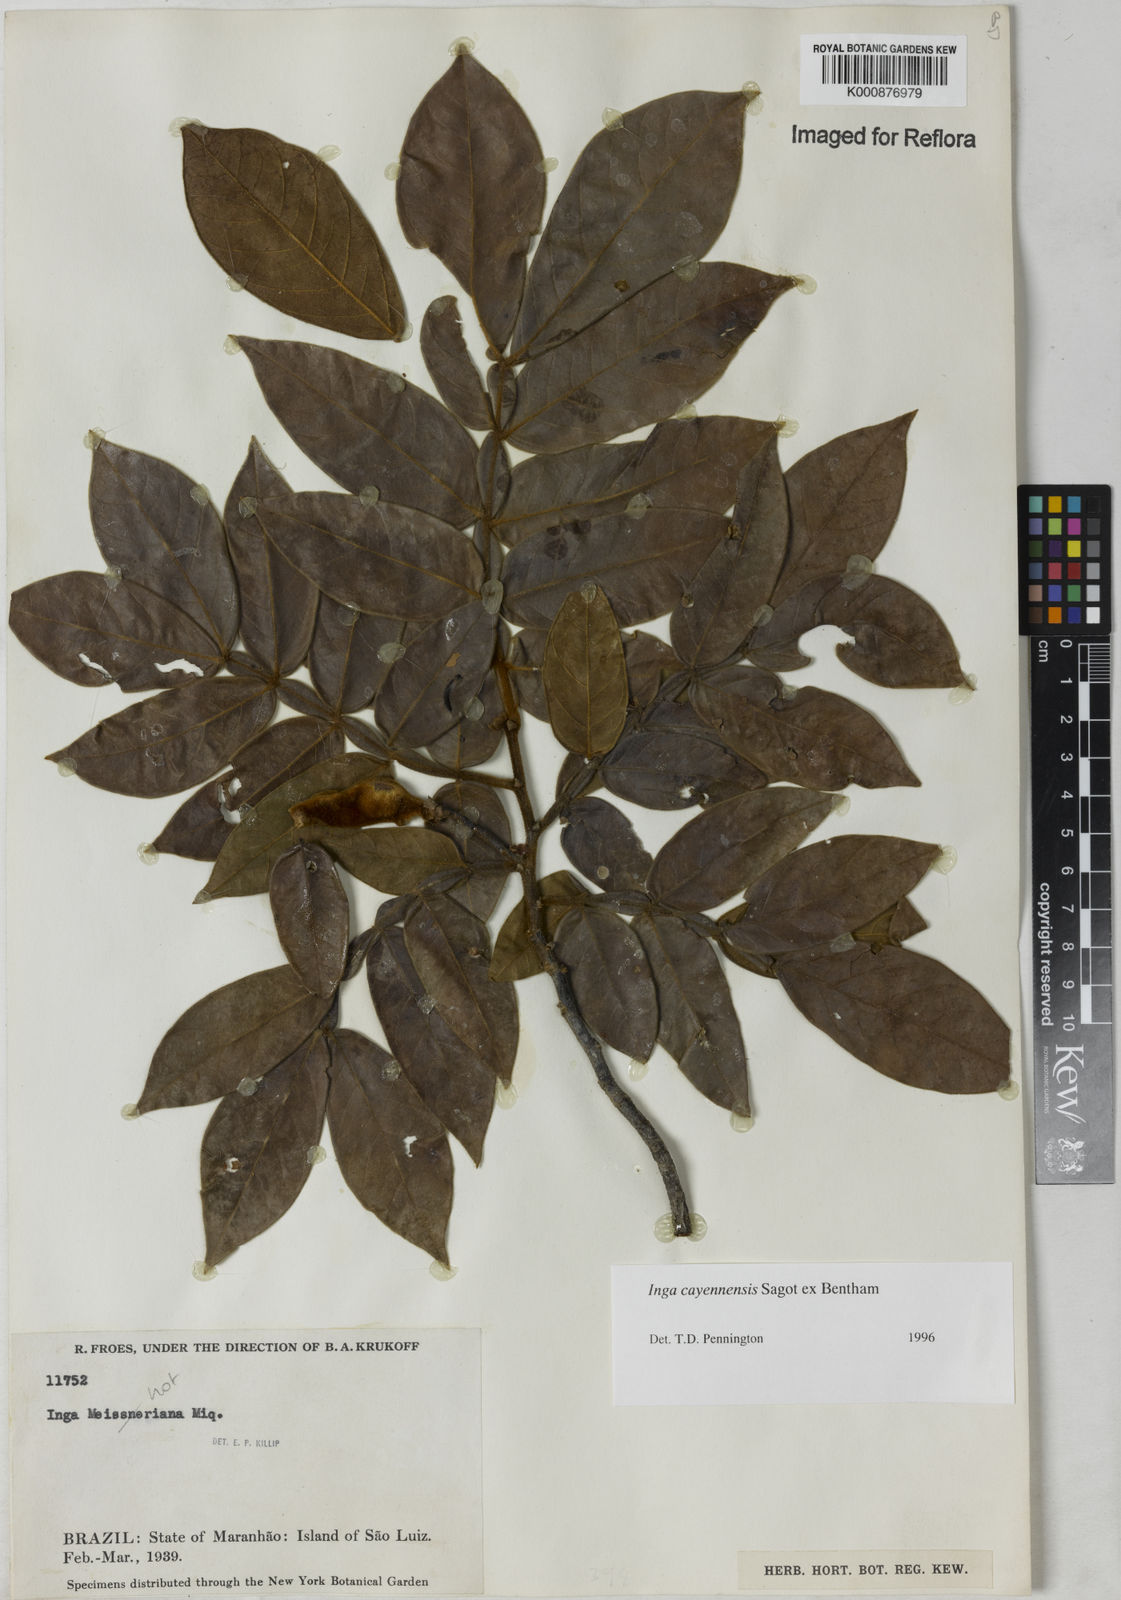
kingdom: Plantae
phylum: Tracheophyta
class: Magnoliopsida
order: Fabales
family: Fabaceae
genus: Inga
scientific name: Inga cayennensis
